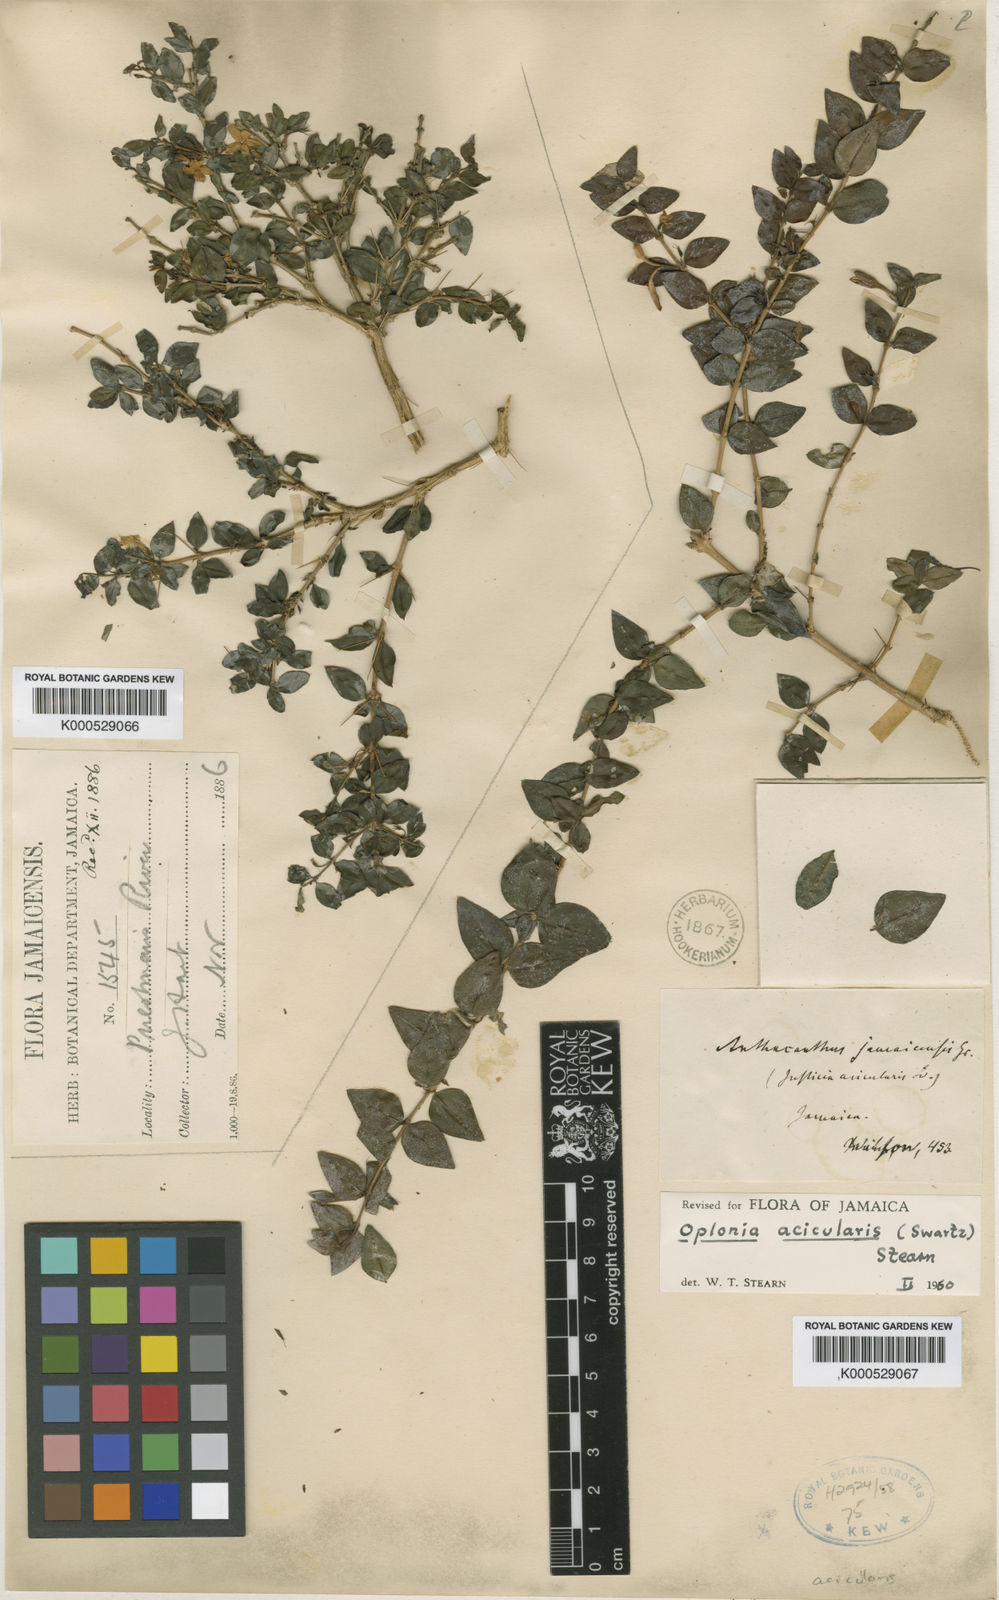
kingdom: Plantae
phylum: Tracheophyta
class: Magnoliopsida
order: Lamiales
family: Acanthaceae
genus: Oplonia
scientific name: Oplonia acicularis
